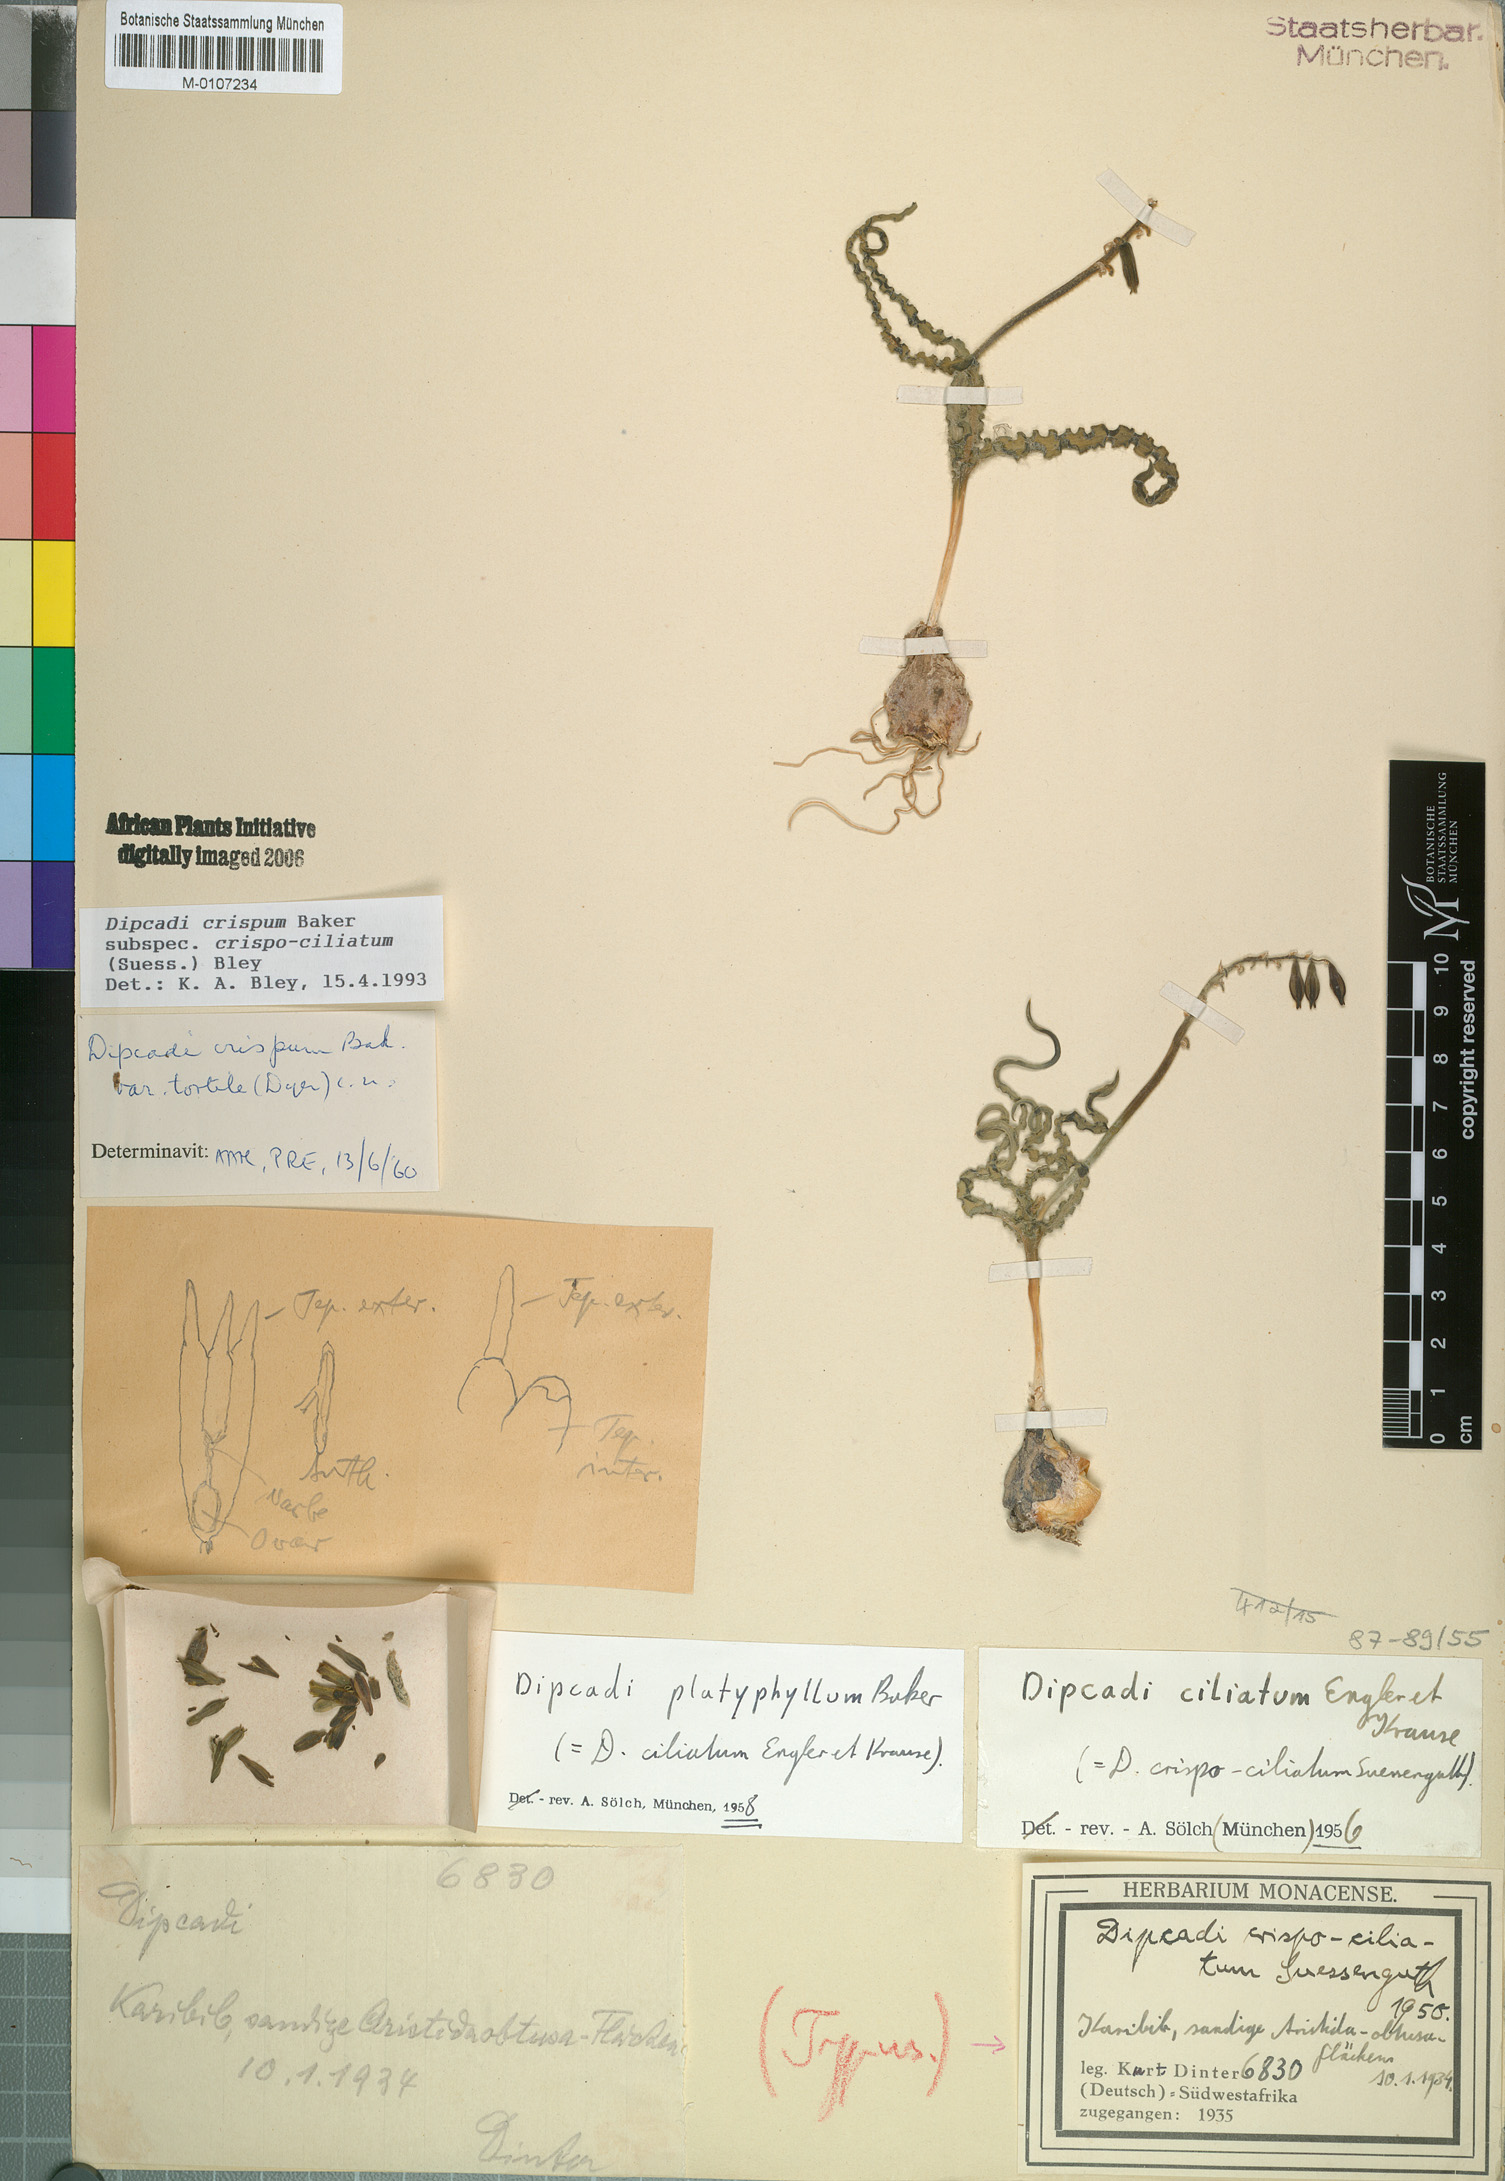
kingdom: Plantae
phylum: Tracheophyta
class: Liliopsida
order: Asparagales
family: Asparagaceae
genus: Dipcadi
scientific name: Dipcadi crispum
